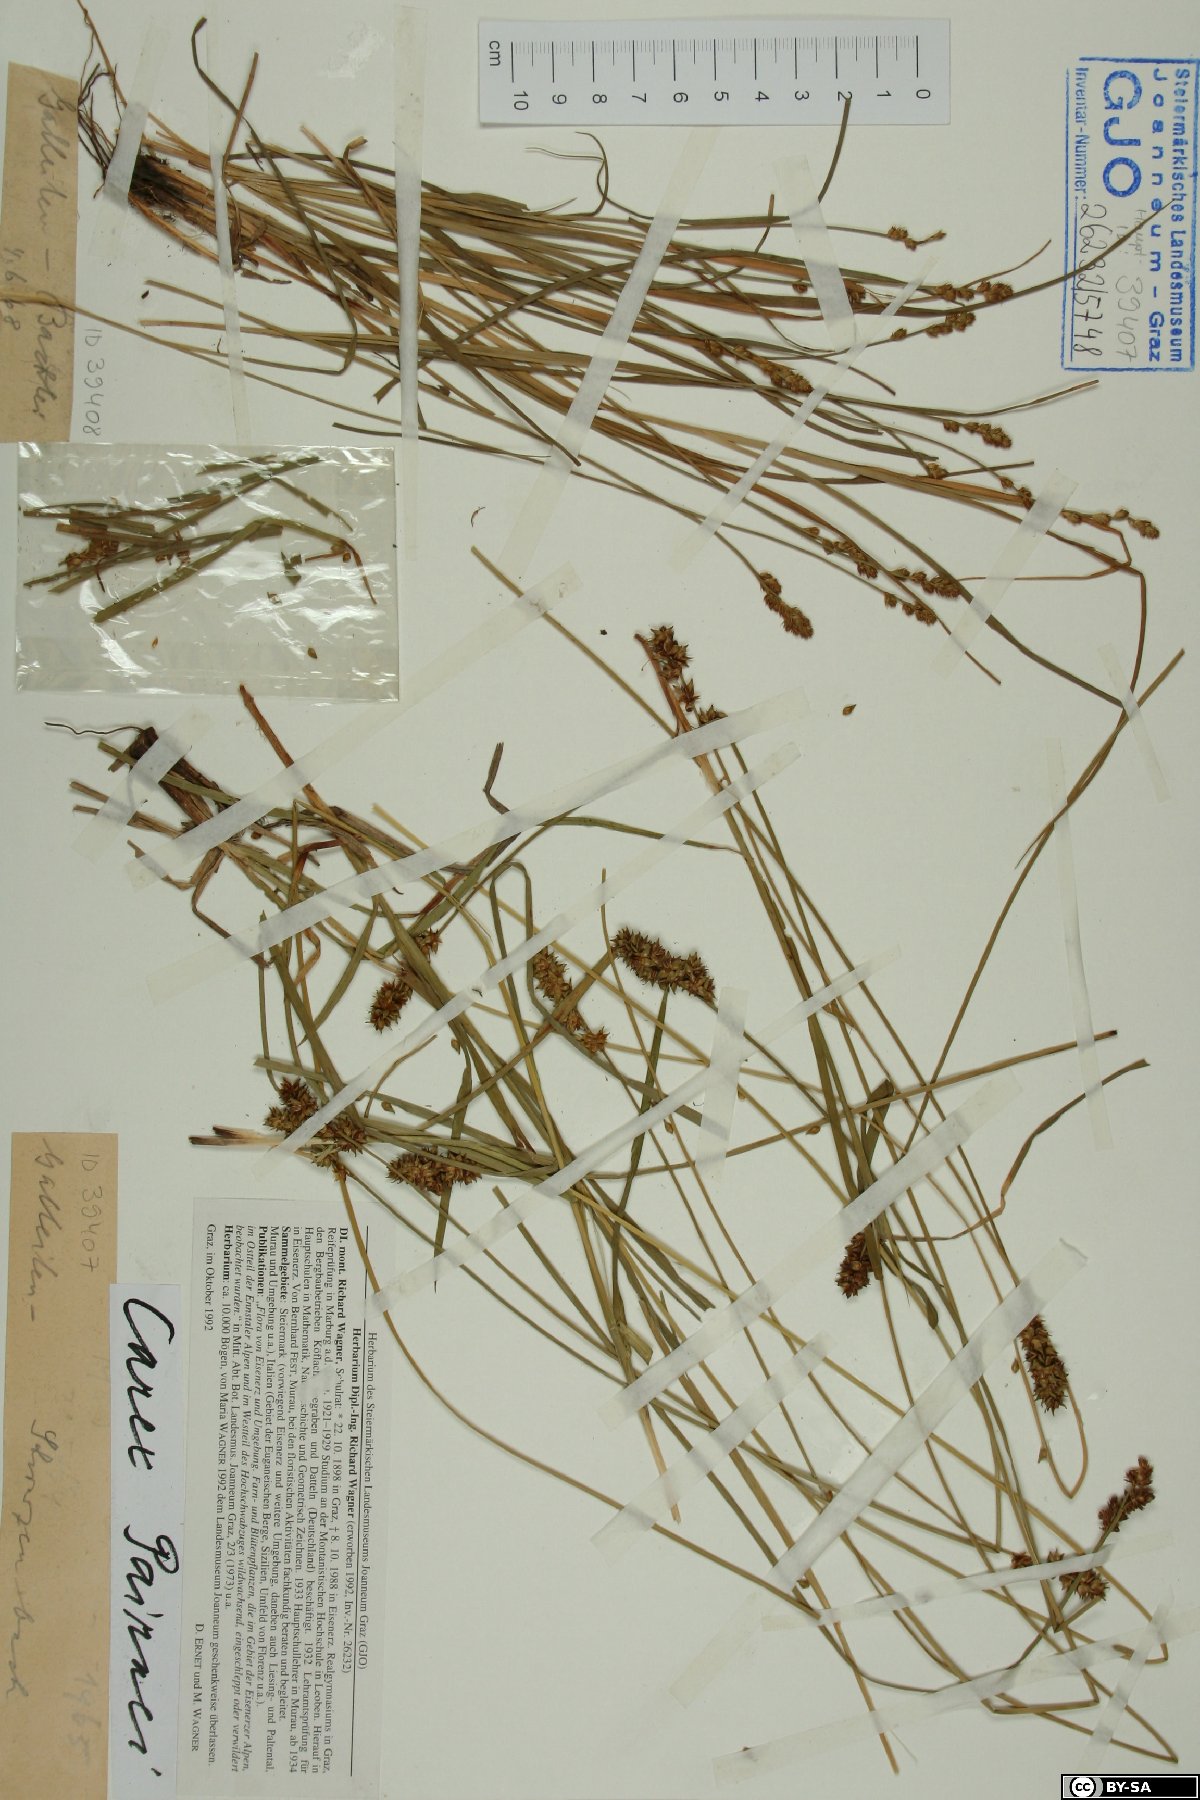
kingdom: Plantae
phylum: Tracheophyta
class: Liliopsida
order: Poales
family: Cyperaceae
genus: Carex
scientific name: Carex pairae
